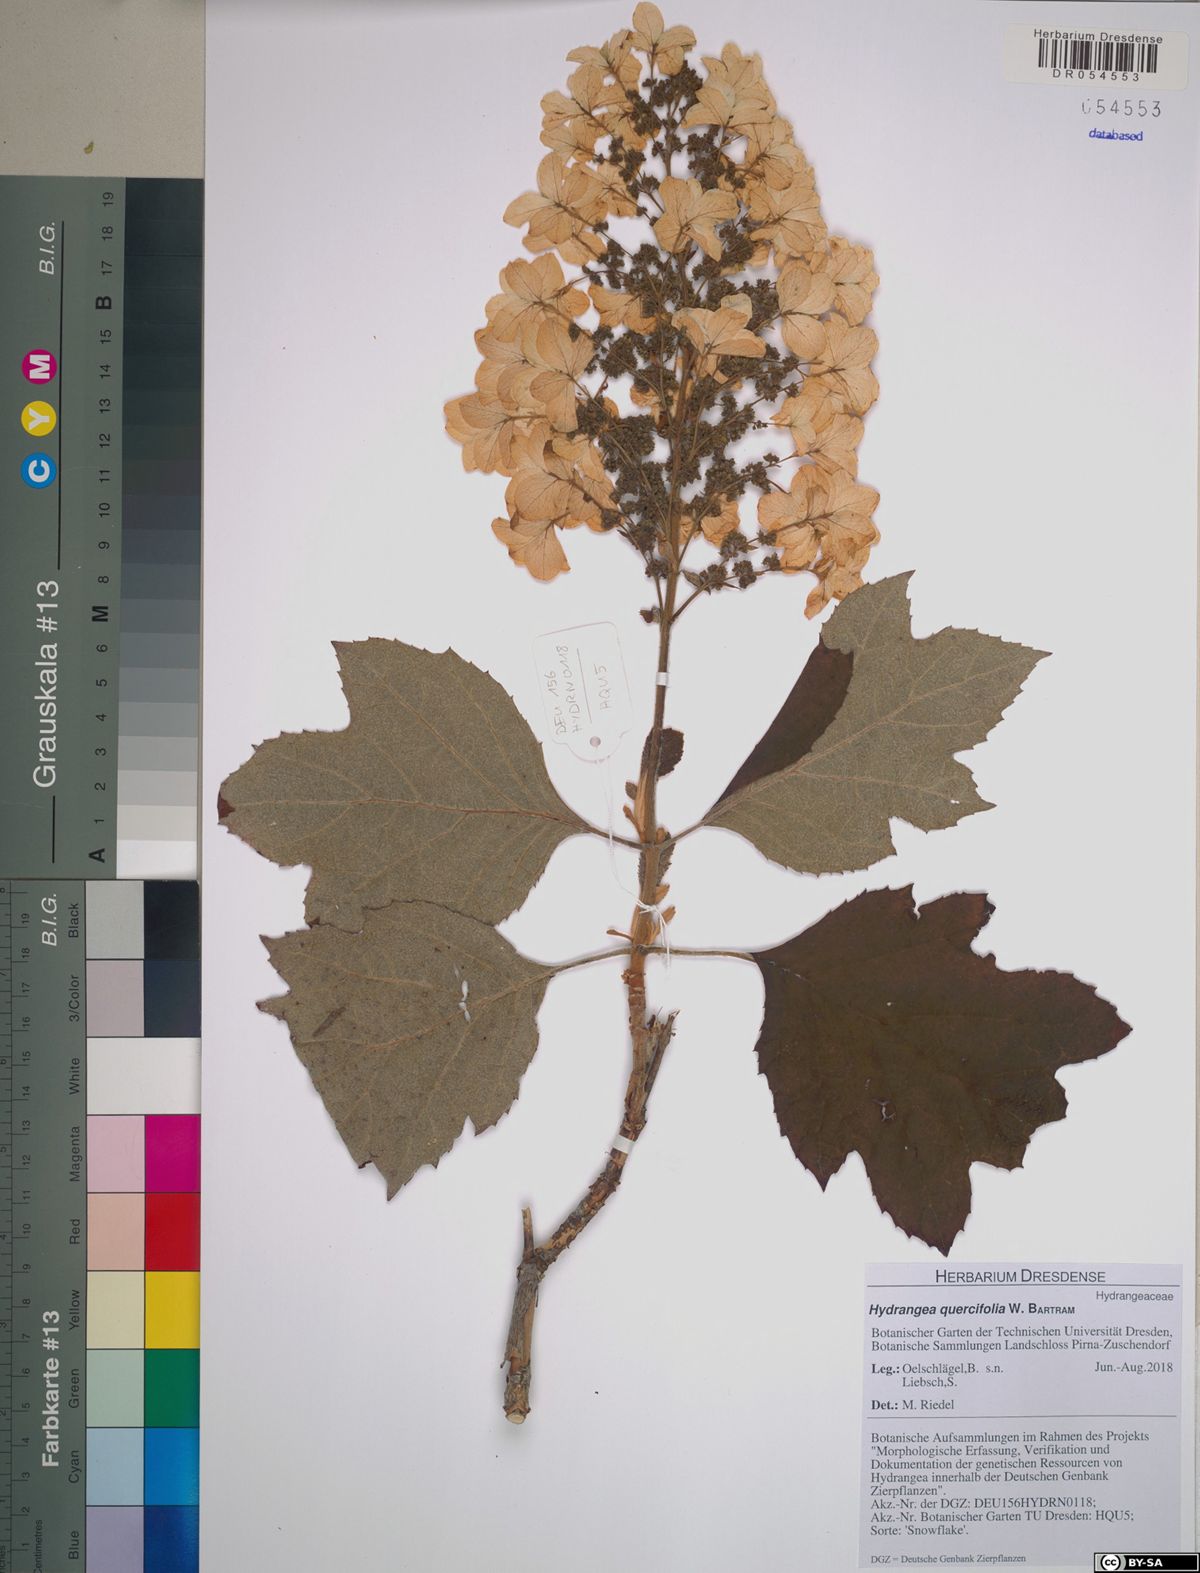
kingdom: Plantae
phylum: Tracheophyta
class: Magnoliopsida
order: Cornales
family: Hydrangeaceae
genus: Hydrangea
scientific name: Hydrangea quercifolia
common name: Oak-leaf hydrangea
